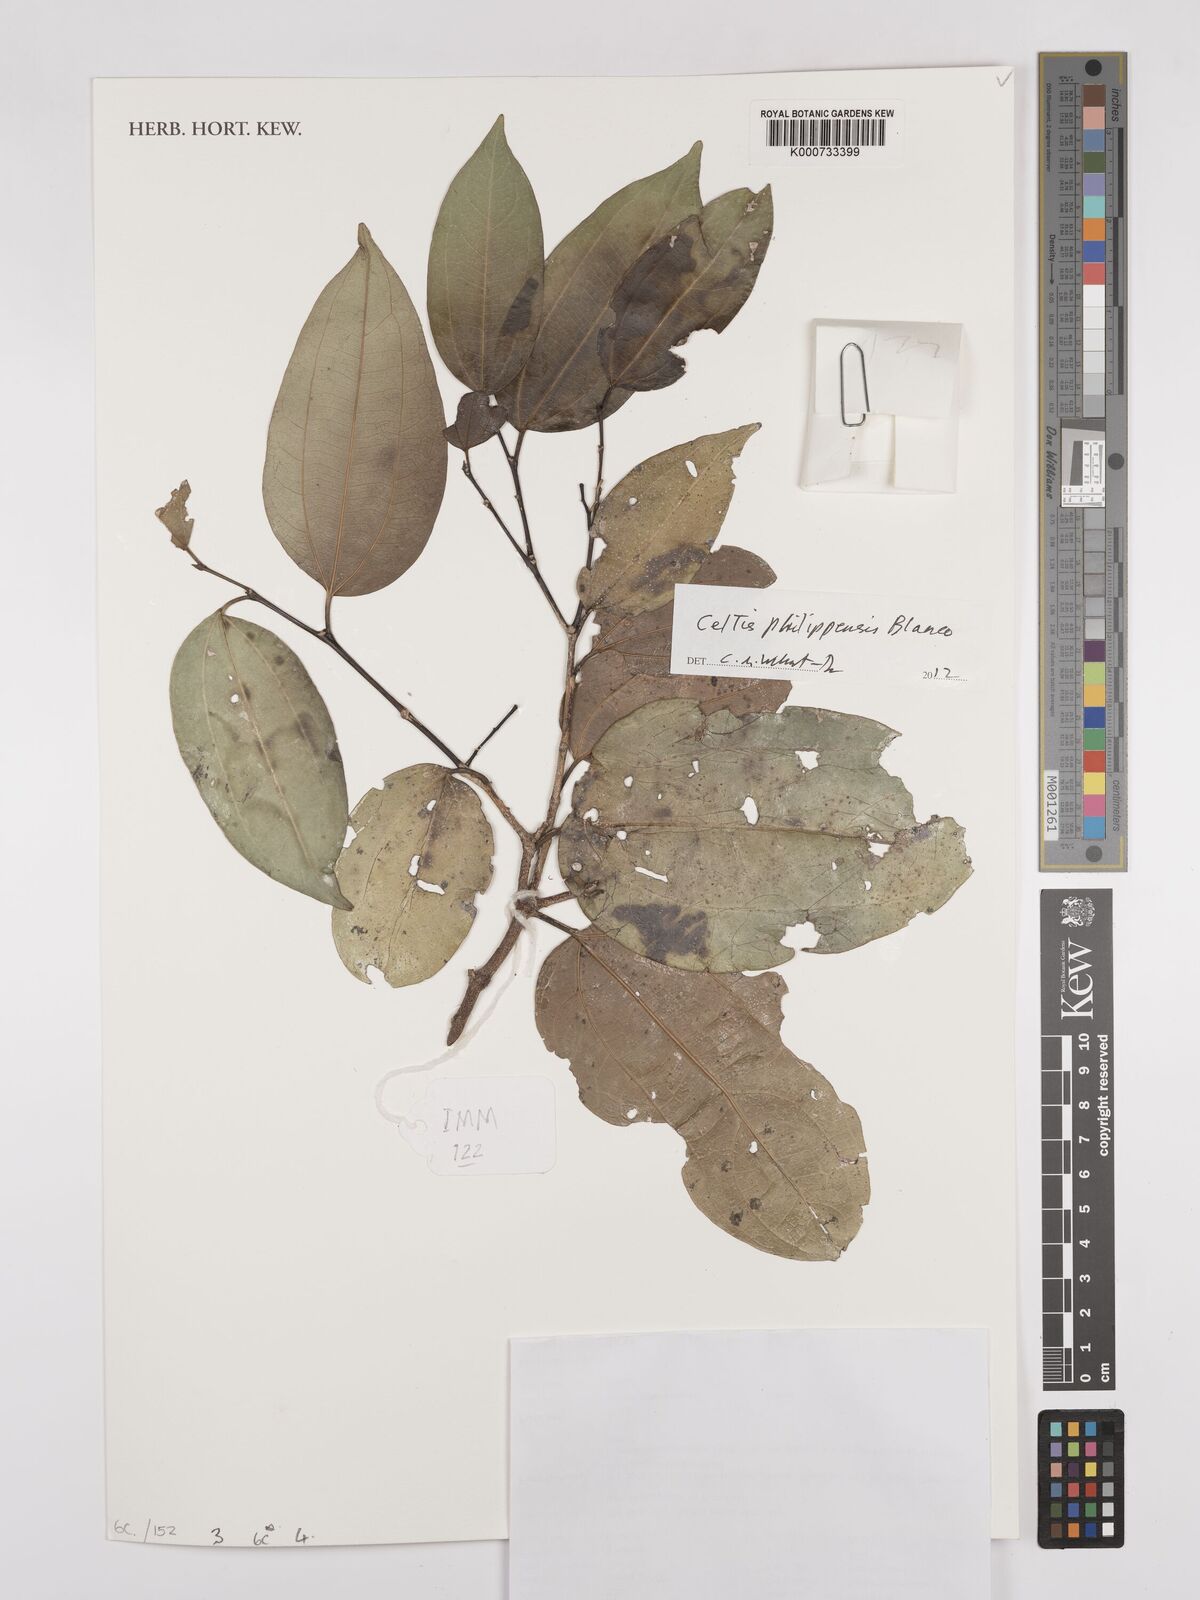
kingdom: Plantae
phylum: Tracheophyta
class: Magnoliopsida
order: Rosales
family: Cannabaceae
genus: Celtis
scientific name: Celtis philippensis
